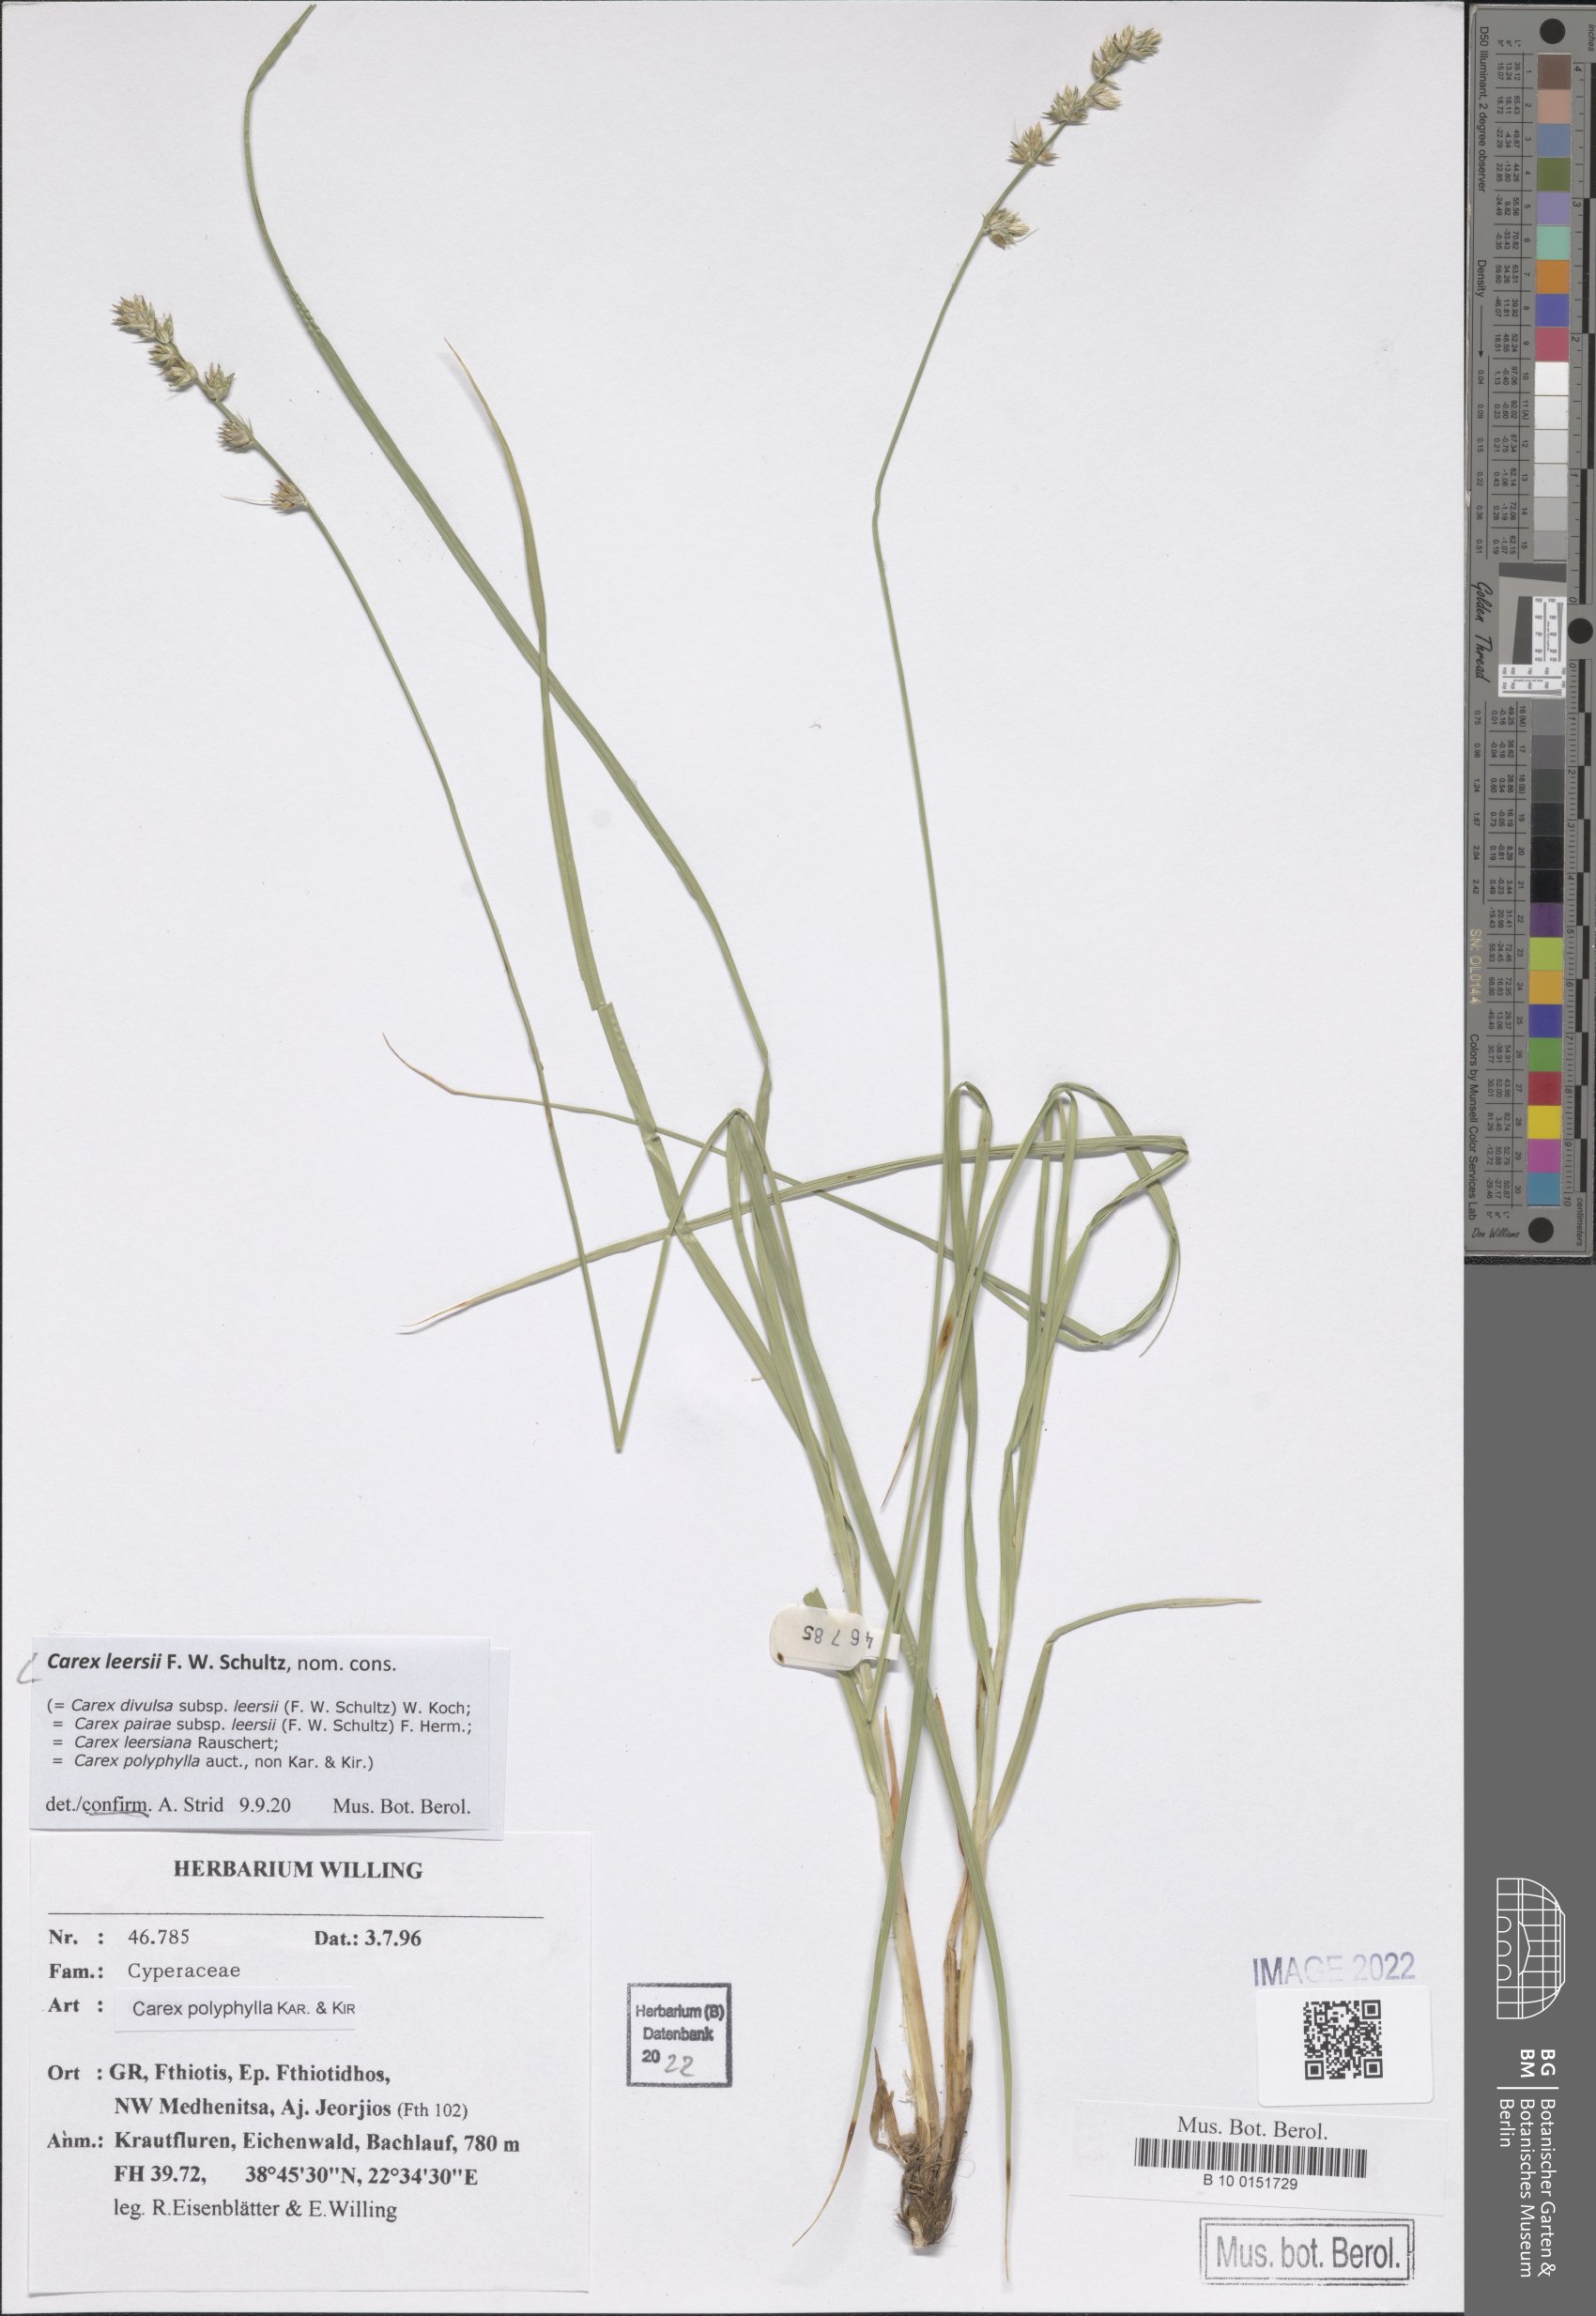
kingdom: Plantae
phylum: Tracheophyta
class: Liliopsida
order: Poales
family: Cyperaceae
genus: Carex
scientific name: Carex leersii
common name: Leers' sedge
